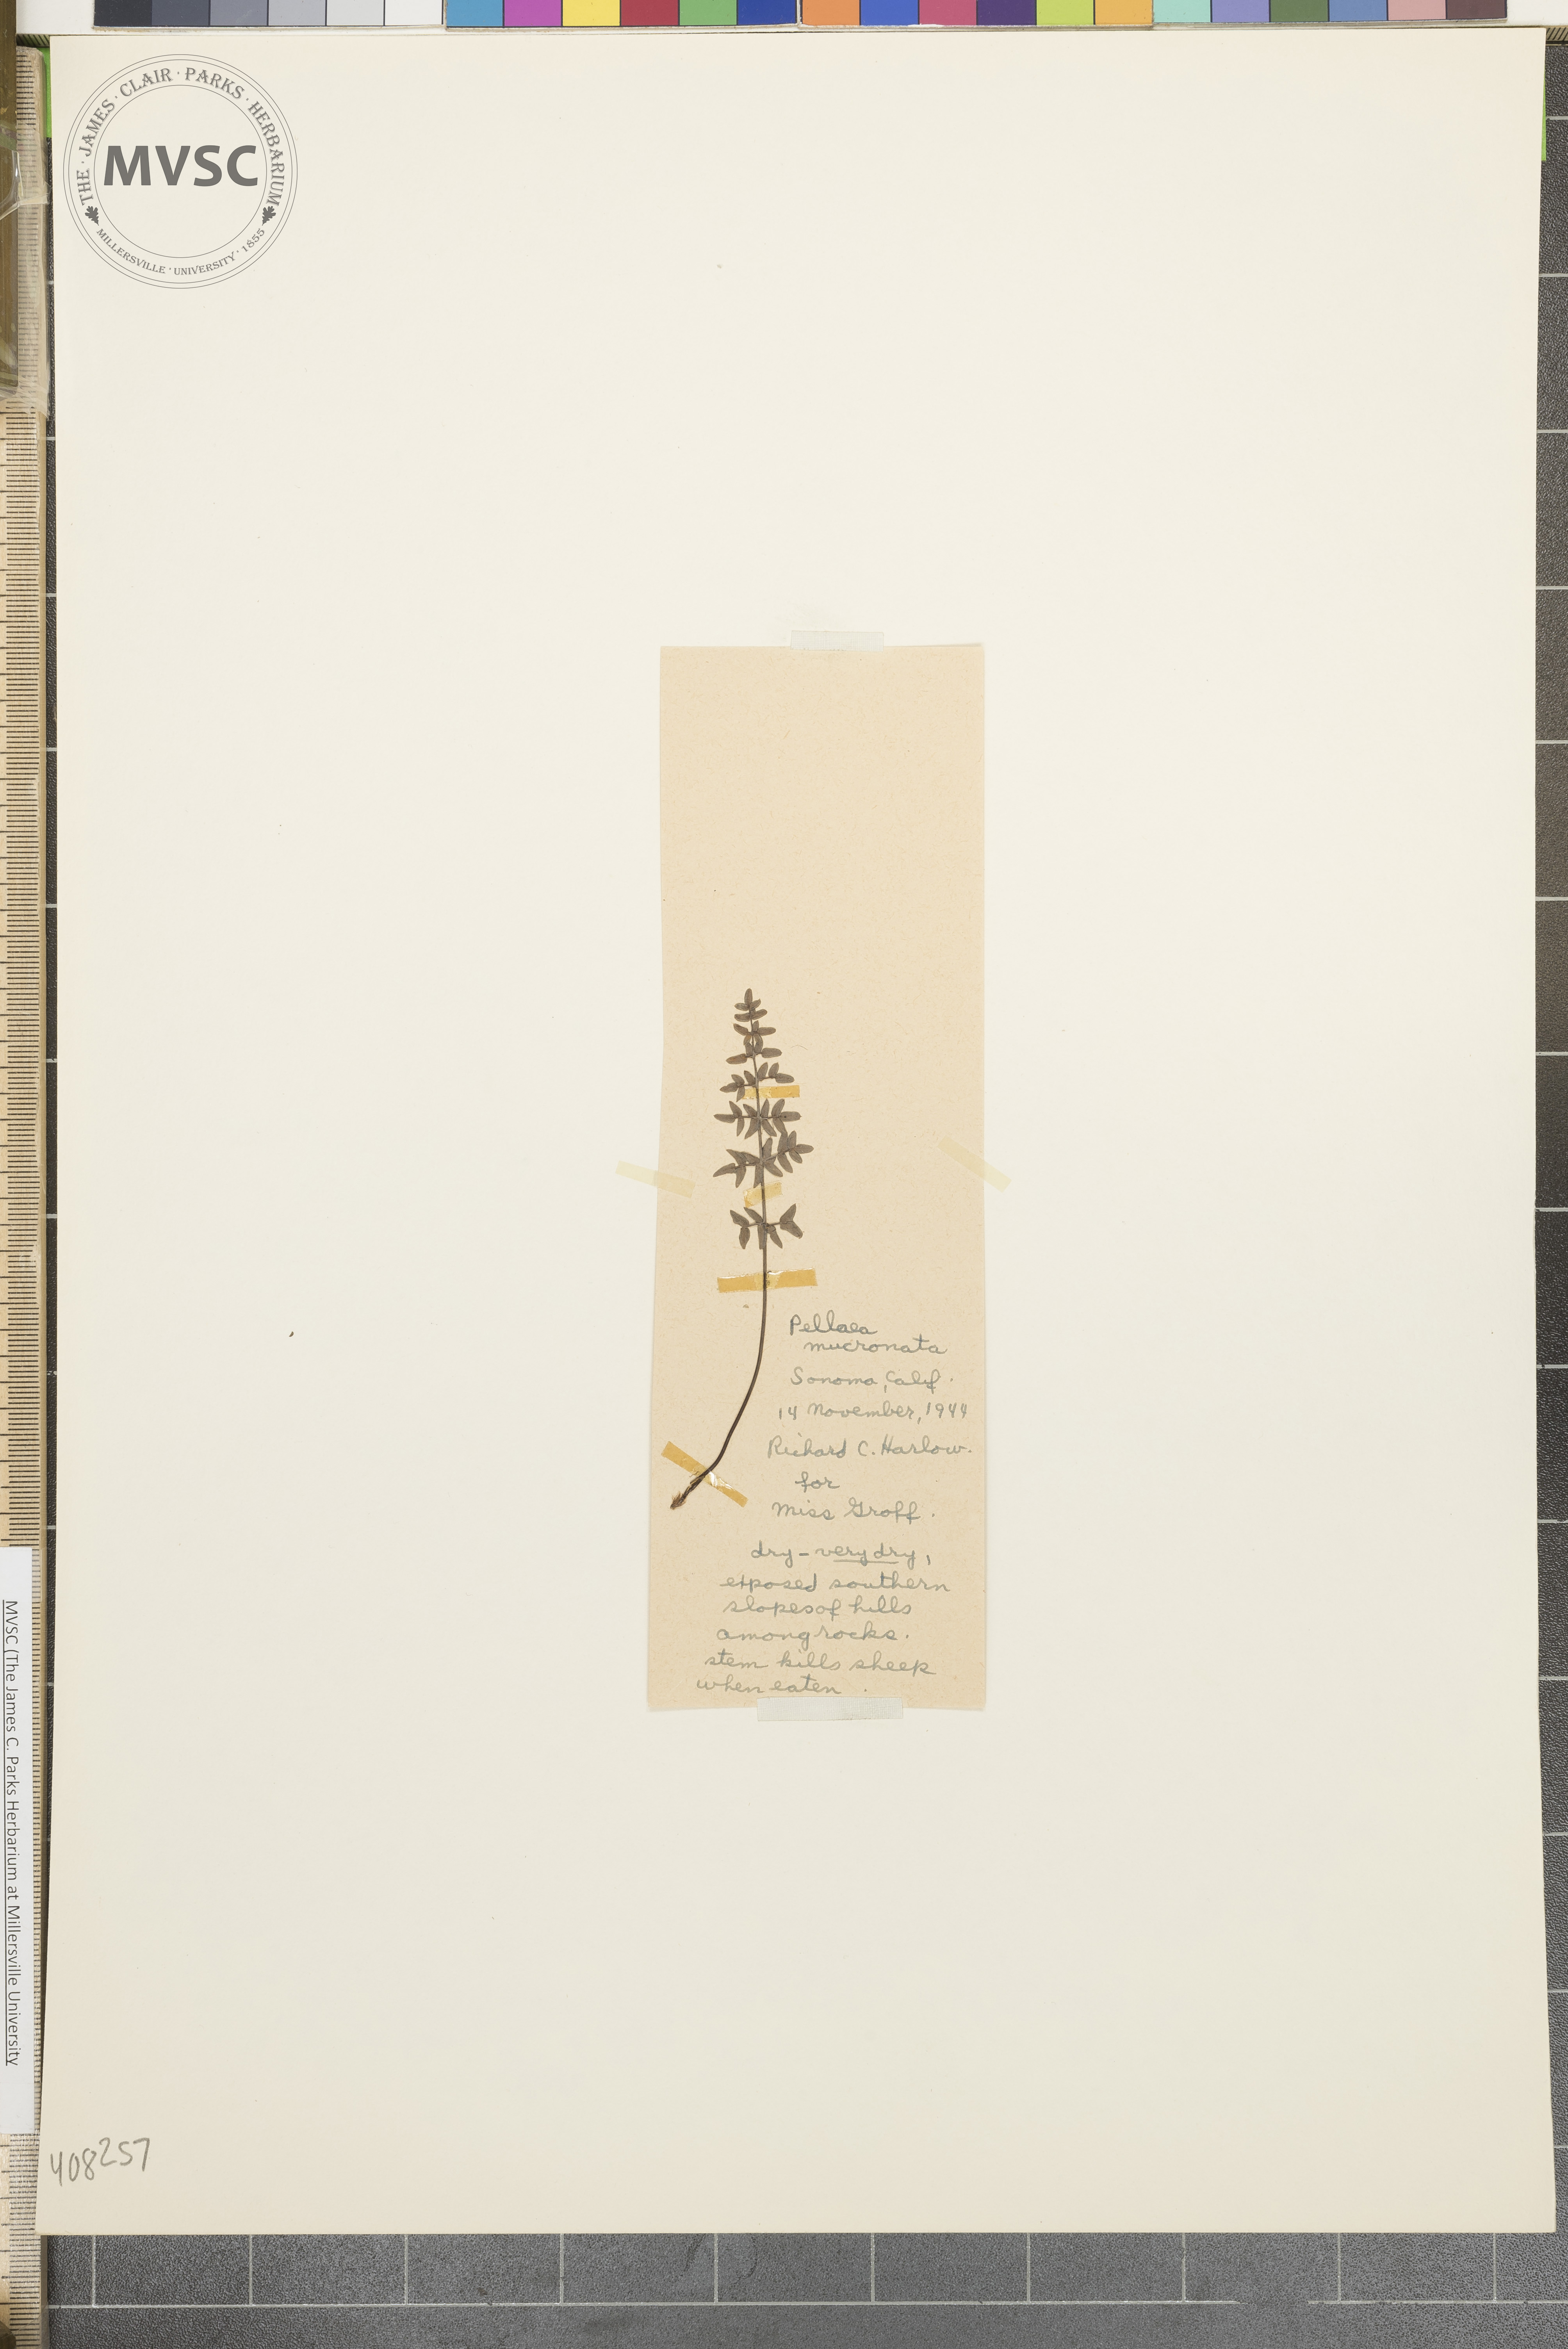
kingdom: Plantae
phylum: Tracheophyta
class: Polypodiopsida
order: Polypodiales
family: Pteridaceae
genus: Pellaea
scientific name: Pellaea mucronata
